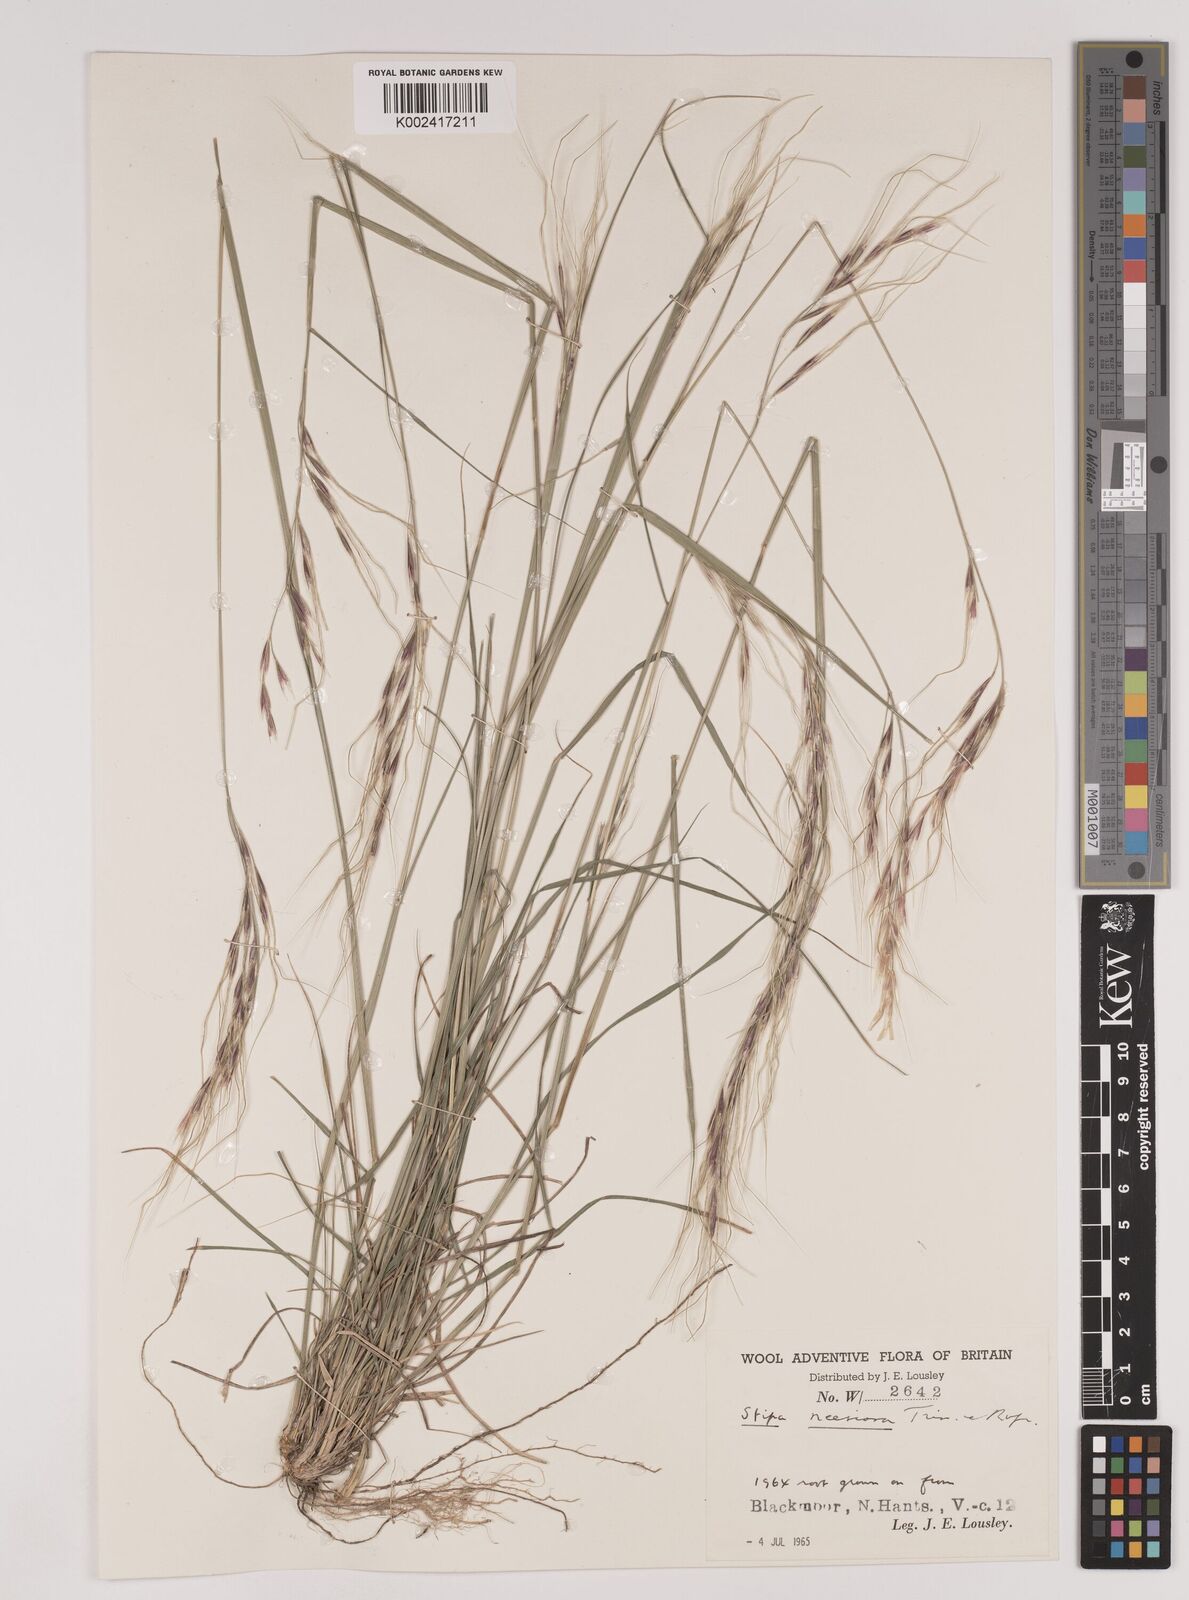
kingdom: Plantae
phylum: Tracheophyta
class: Liliopsida
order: Poales
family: Poaceae
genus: Nassella
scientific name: Nassella neesiana
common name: American needle-grass
